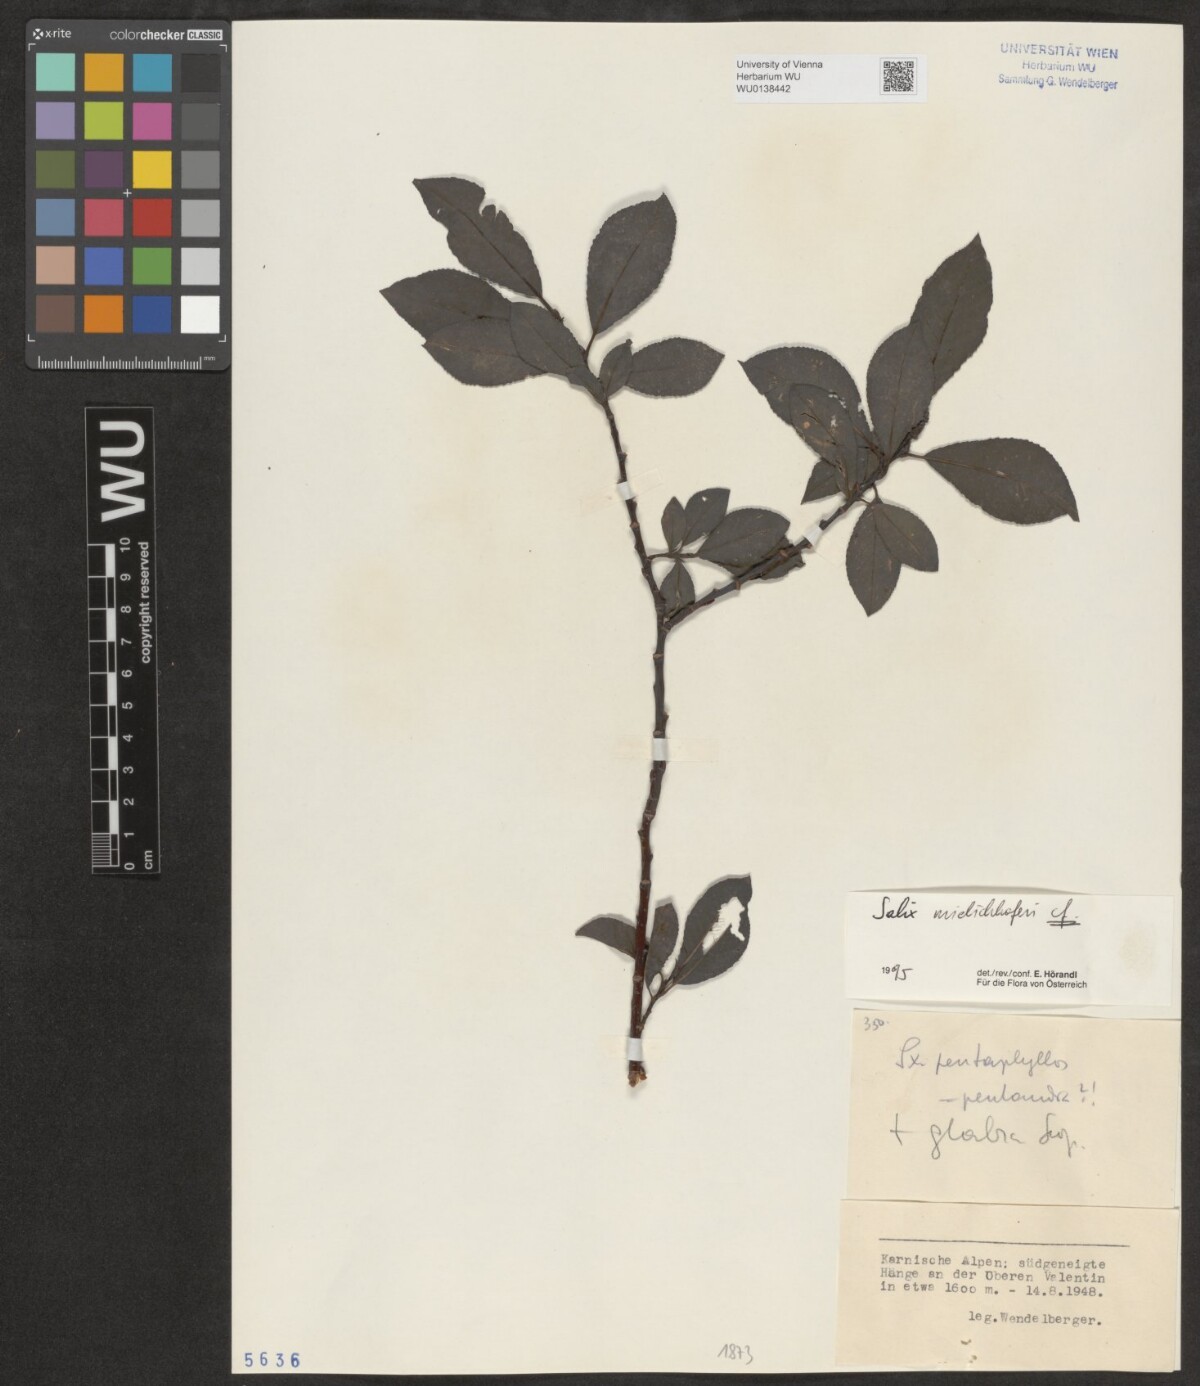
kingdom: Plantae
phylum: Tracheophyta
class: Magnoliopsida
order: Malpighiales
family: Salicaceae
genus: Salix
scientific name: Salix mielichhoferi
